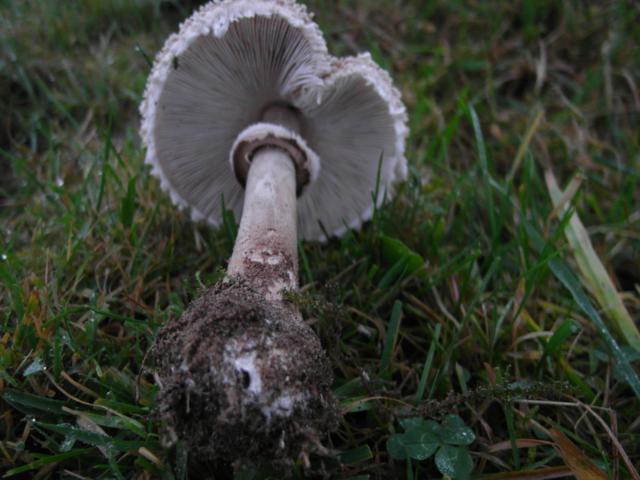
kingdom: Fungi
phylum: Basidiomycota
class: Agaricomycetes
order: Agaricales
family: Agaricaceae
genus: Macrolepiota
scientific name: Macrolepiota procera
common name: stor kæmpeparasolhat
